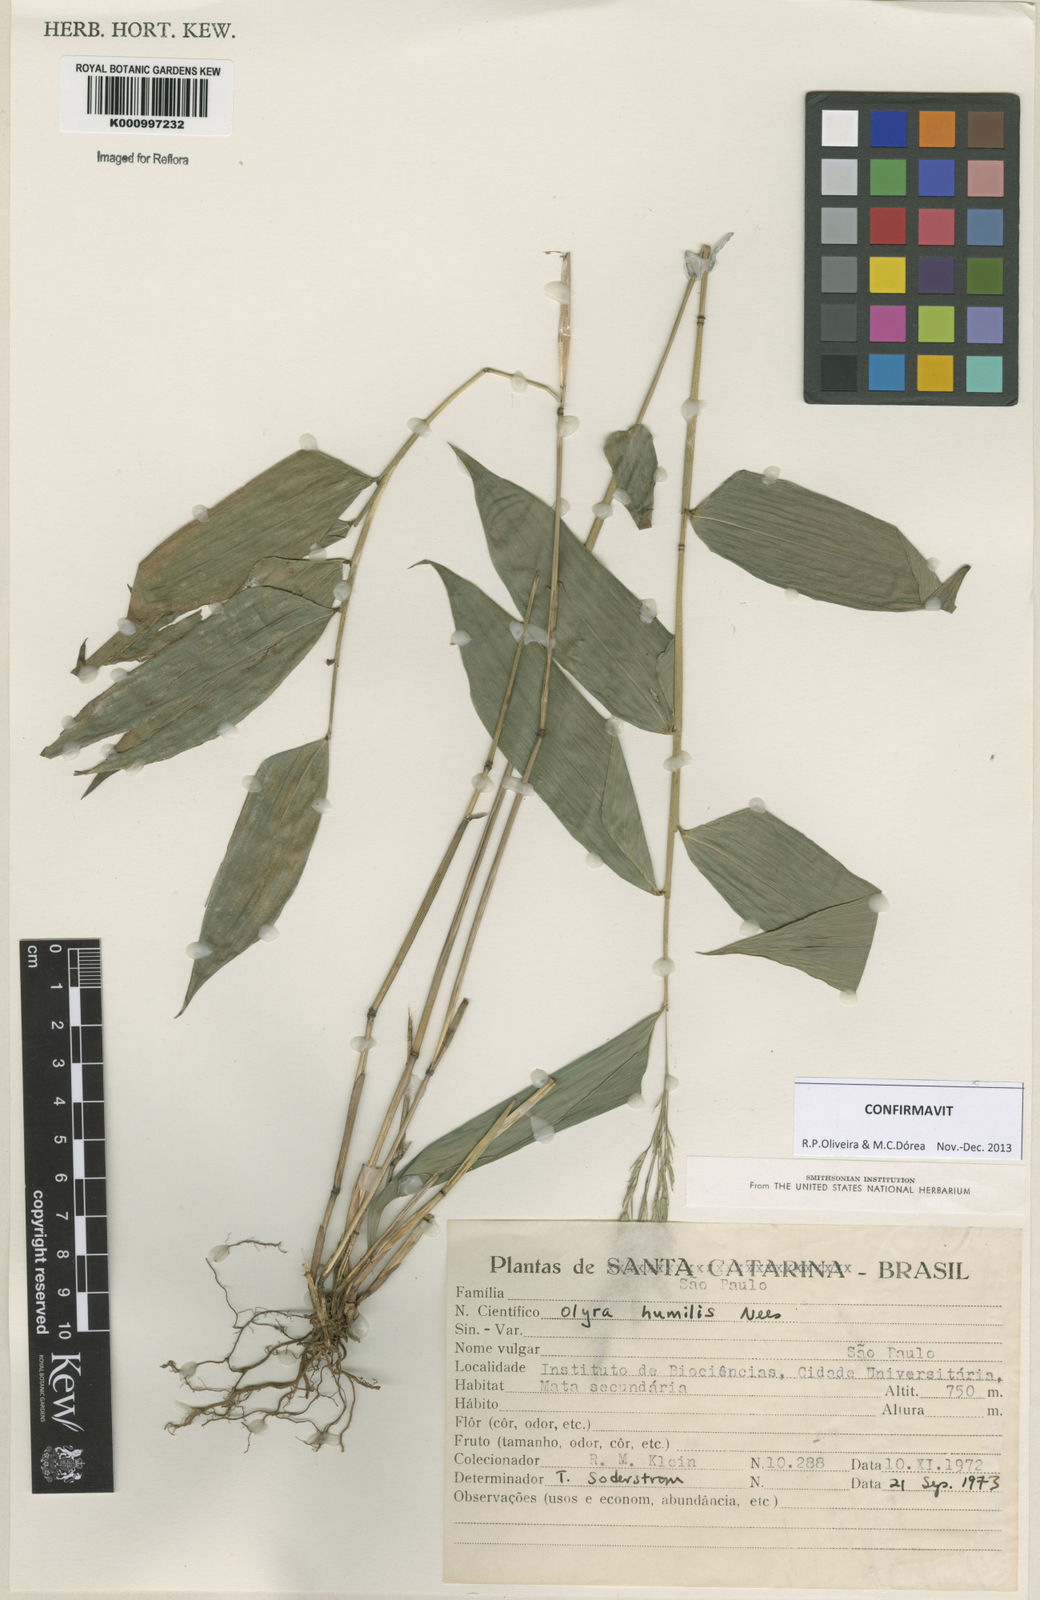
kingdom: Plantae
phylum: Tracheophyta
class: Liliopsida
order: Poales
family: Poaceae
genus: Olyra
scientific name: Olyra humilis
